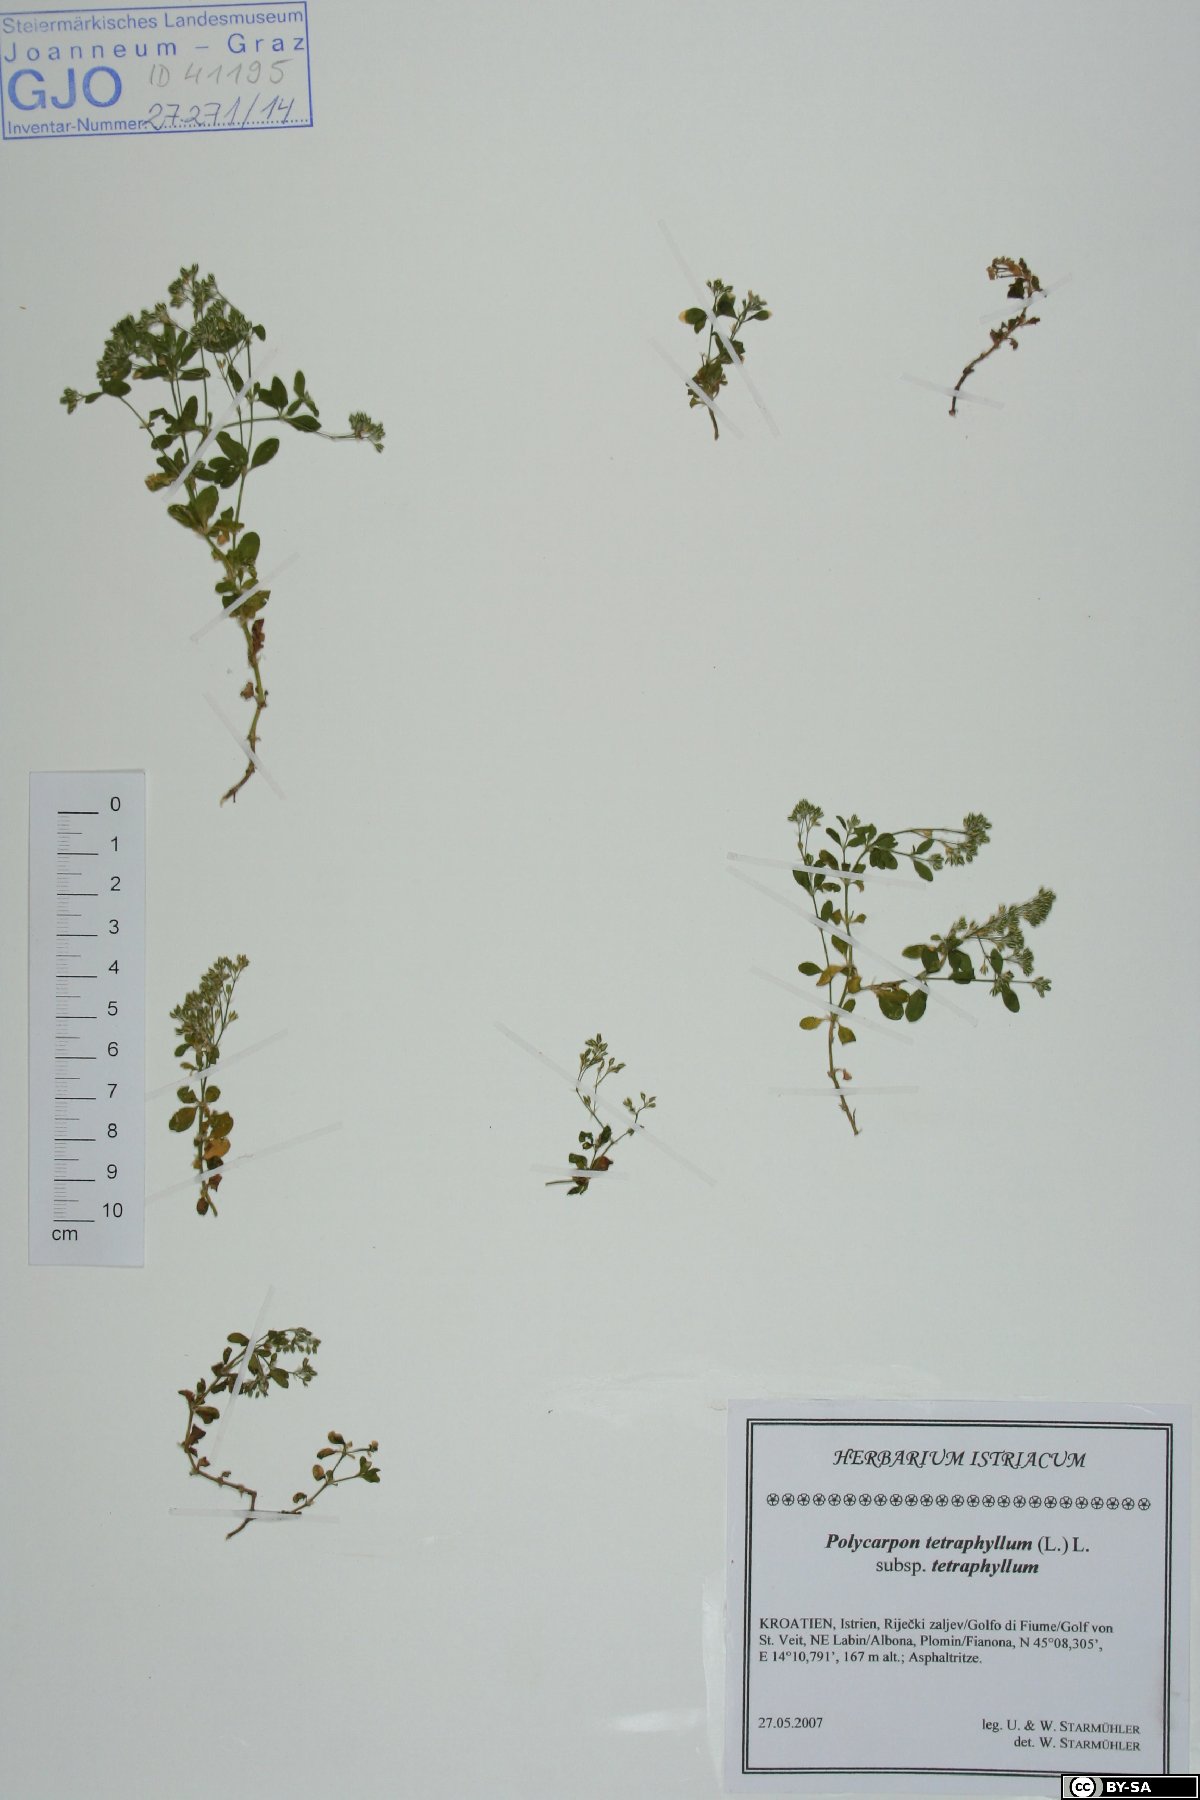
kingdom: Plantae
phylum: Tracheophyta
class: Magnoliopsida
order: Caryophyllales
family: Caryophyllaceae
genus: Polycarpon
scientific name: Polycarpon tetraphyllum
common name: Four-leaved all-seed
